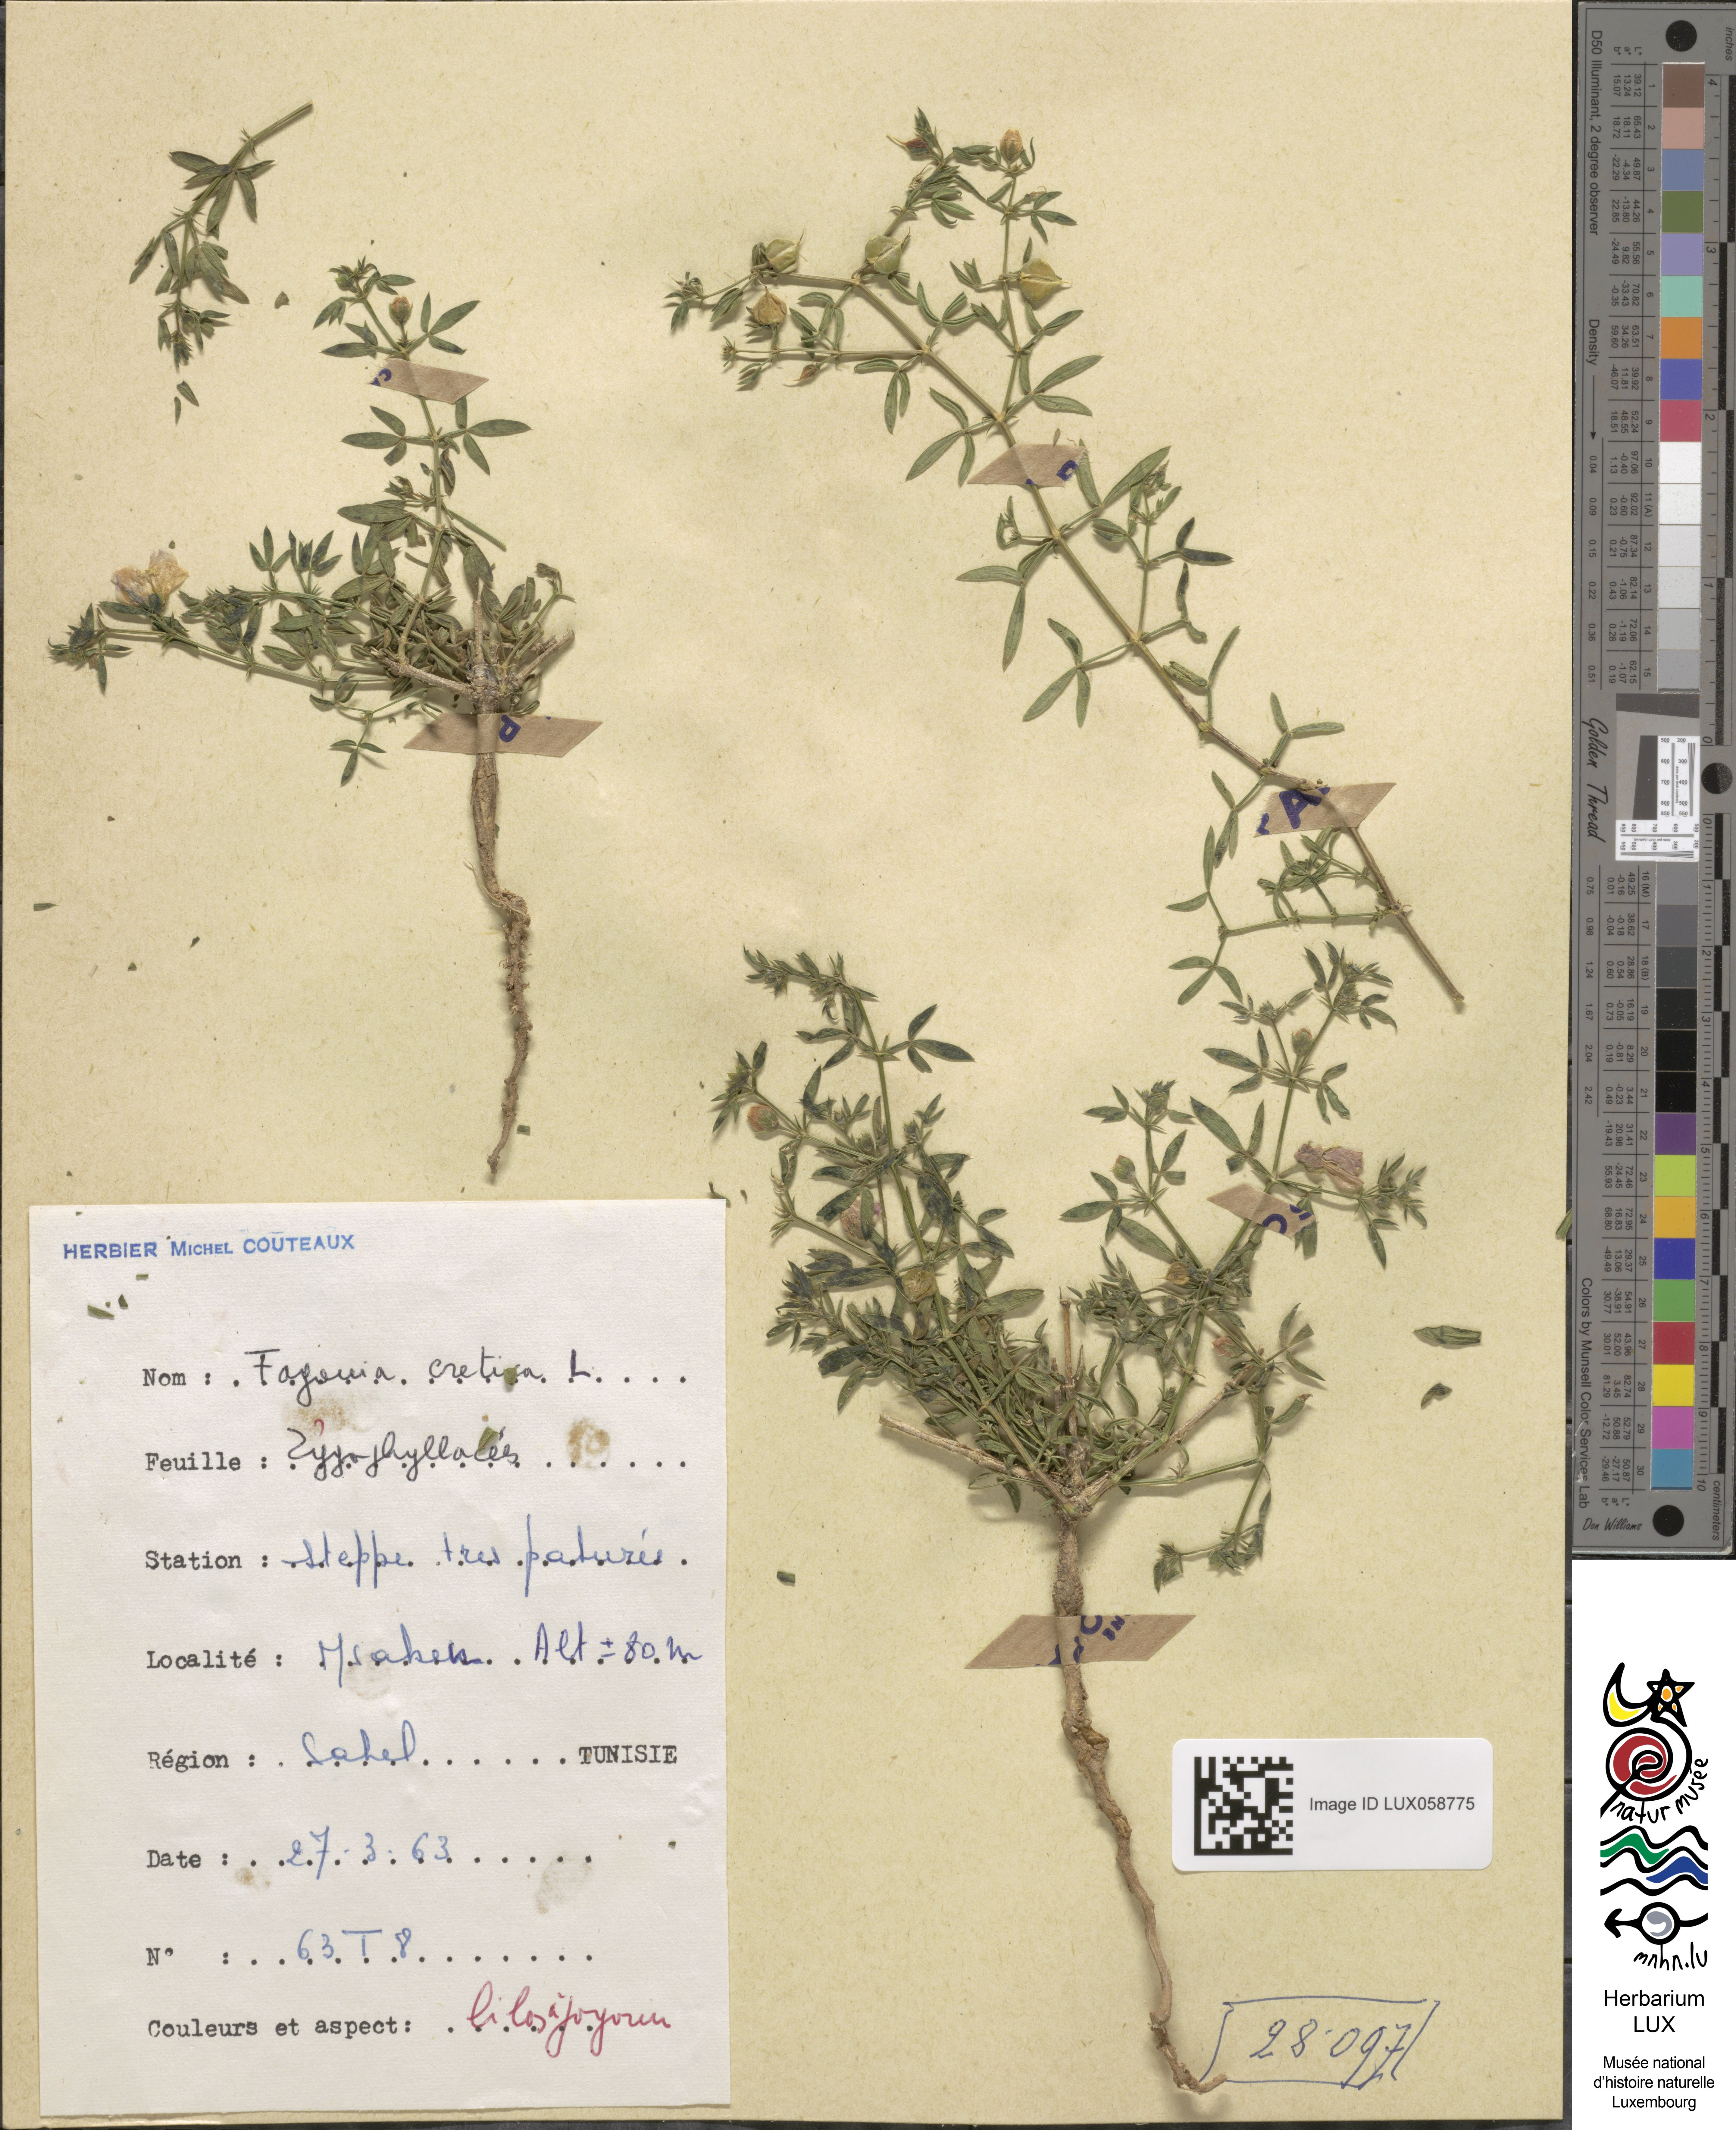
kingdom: Plantae
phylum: Tracheophyta
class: Magnoliopsida
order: Zygophyllales
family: Zygophyllaceae
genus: Fagonia
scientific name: Fagonia cretica
